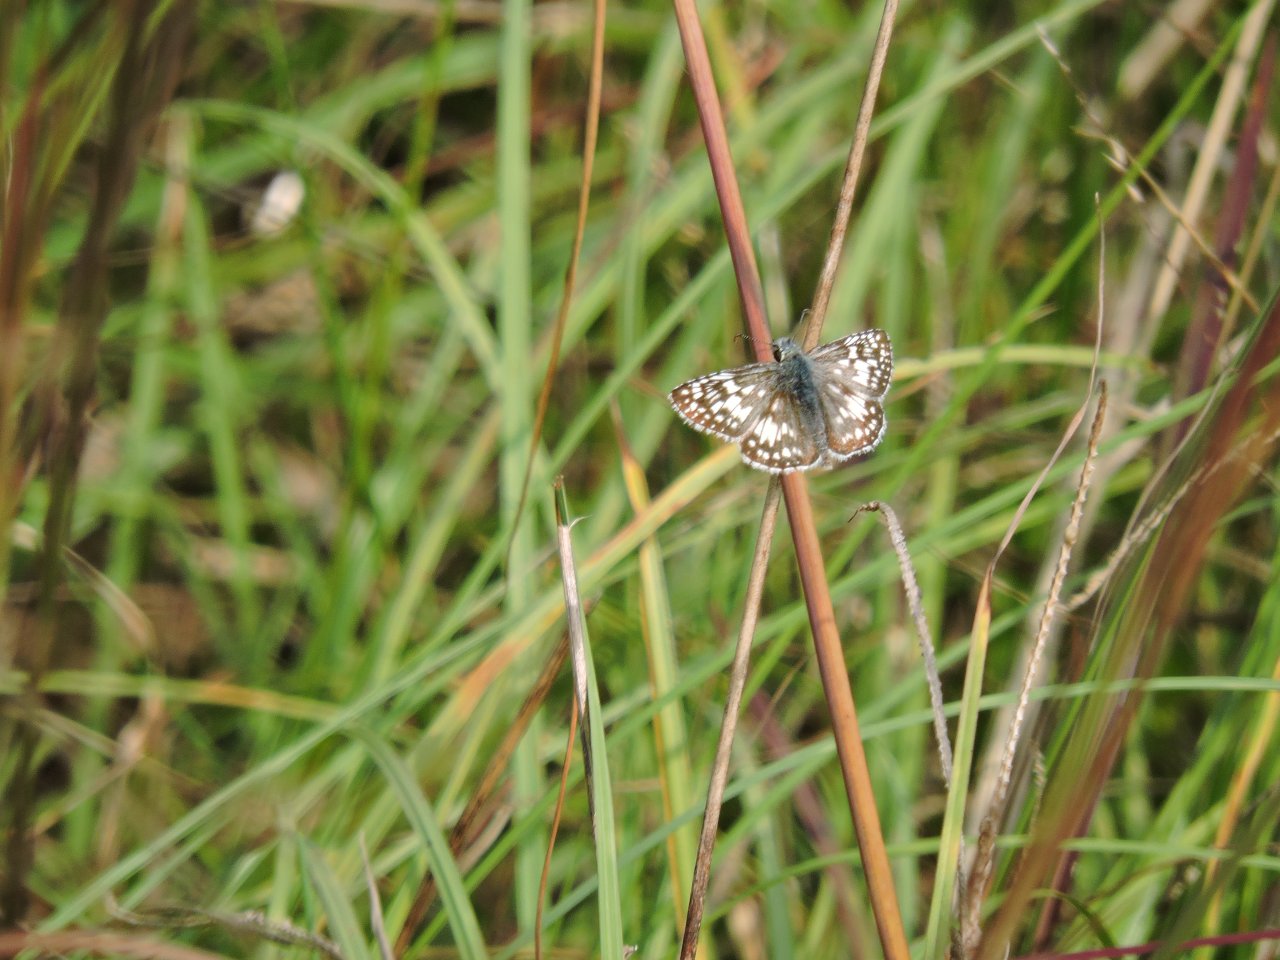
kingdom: Animalia
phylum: Arthropoda
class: Insecta
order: Lepidoptera
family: Hesperiidae
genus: Pyrgus
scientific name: Pyrgus
